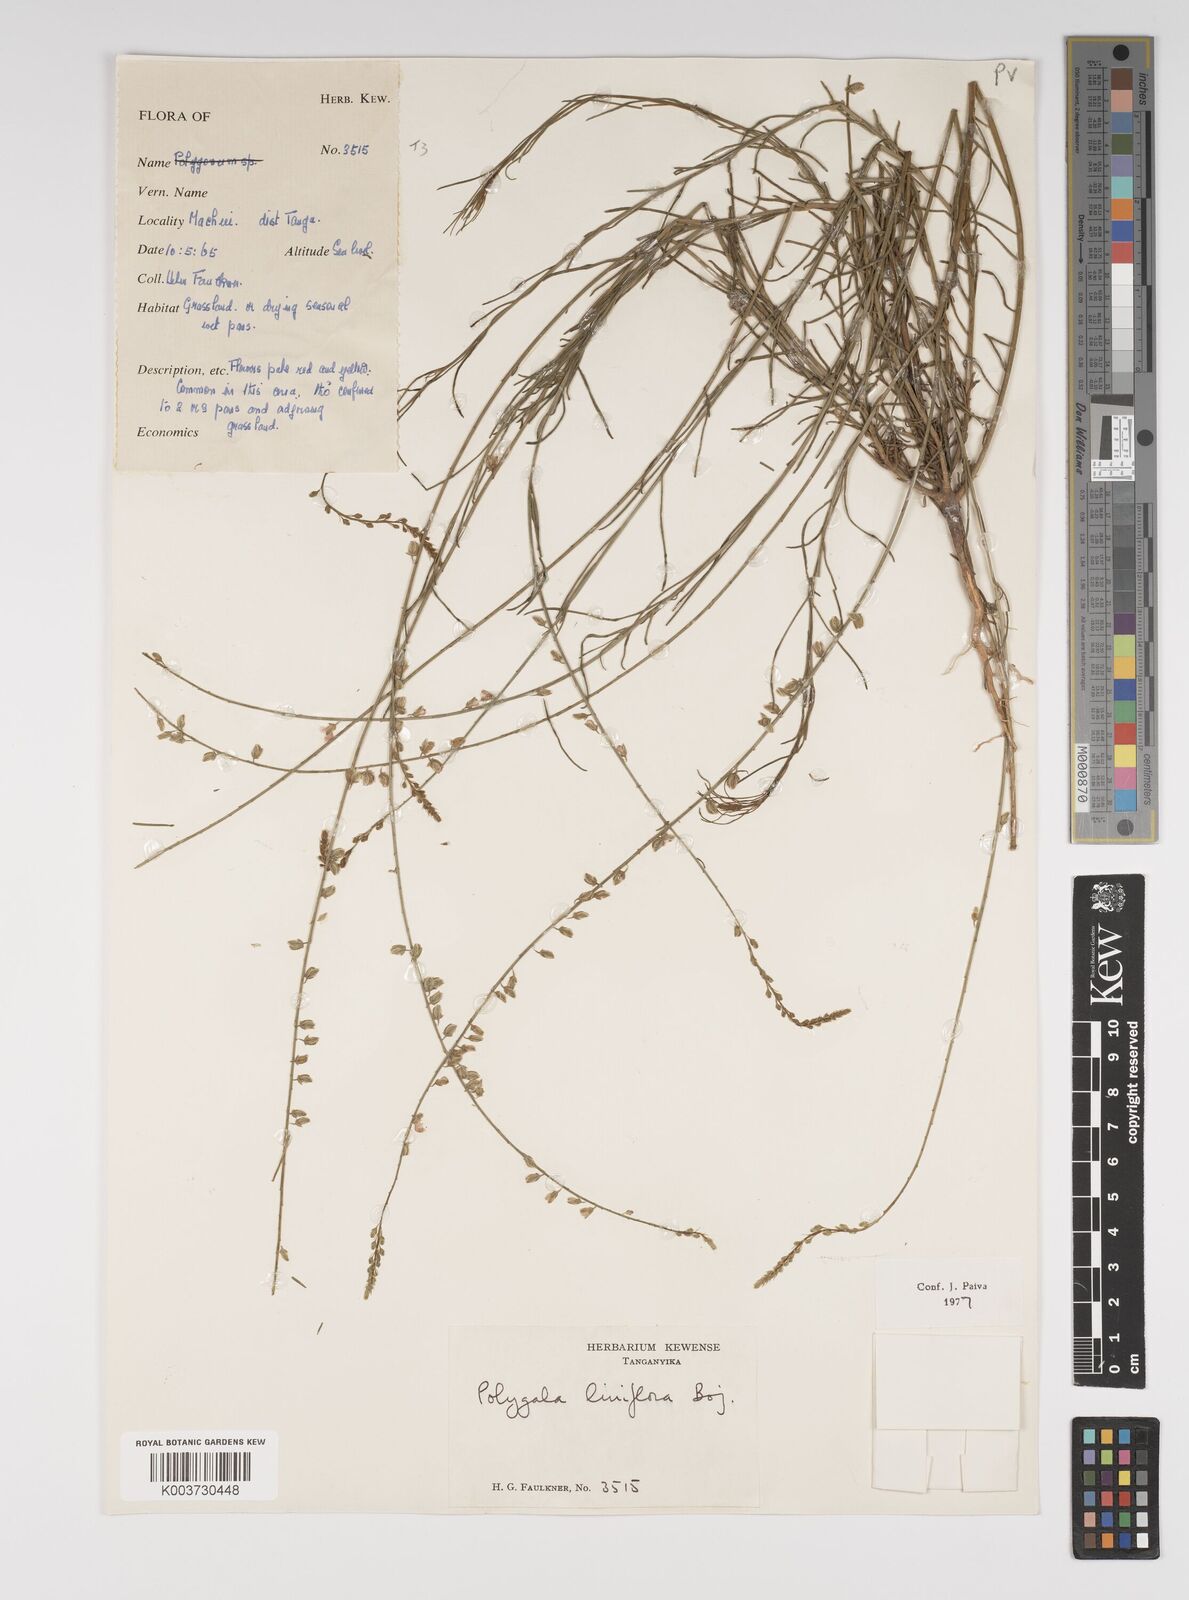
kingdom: Plantae
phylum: Tracheophyta
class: Magnoliopsida
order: Fabales
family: Polygalaceae
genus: Polygala
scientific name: Polygala conosperma
